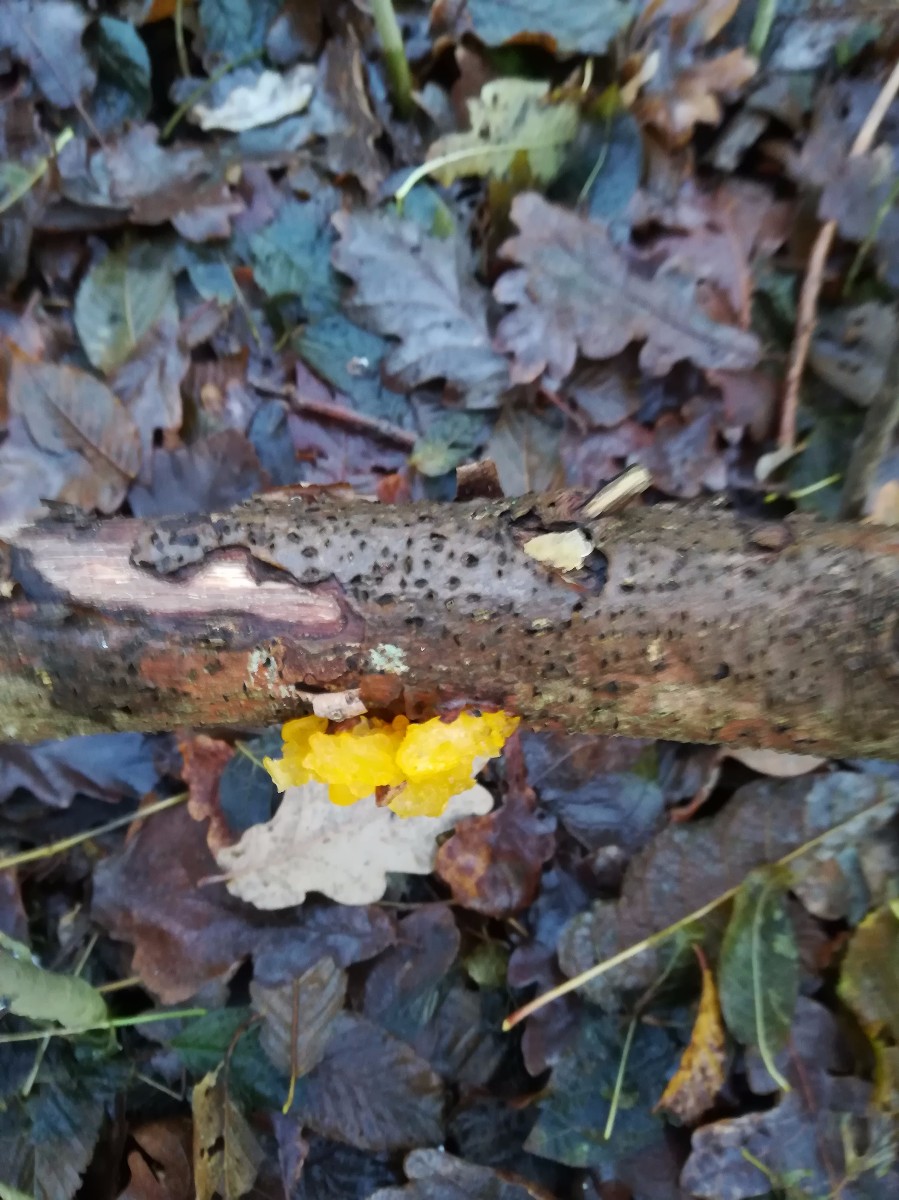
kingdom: Fungi
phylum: Basidiomycota
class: Tremellomycetes
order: Tremellales
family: Tremellaceae
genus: Tremella
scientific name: Tremella mesenterica
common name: gul bævresvamp
